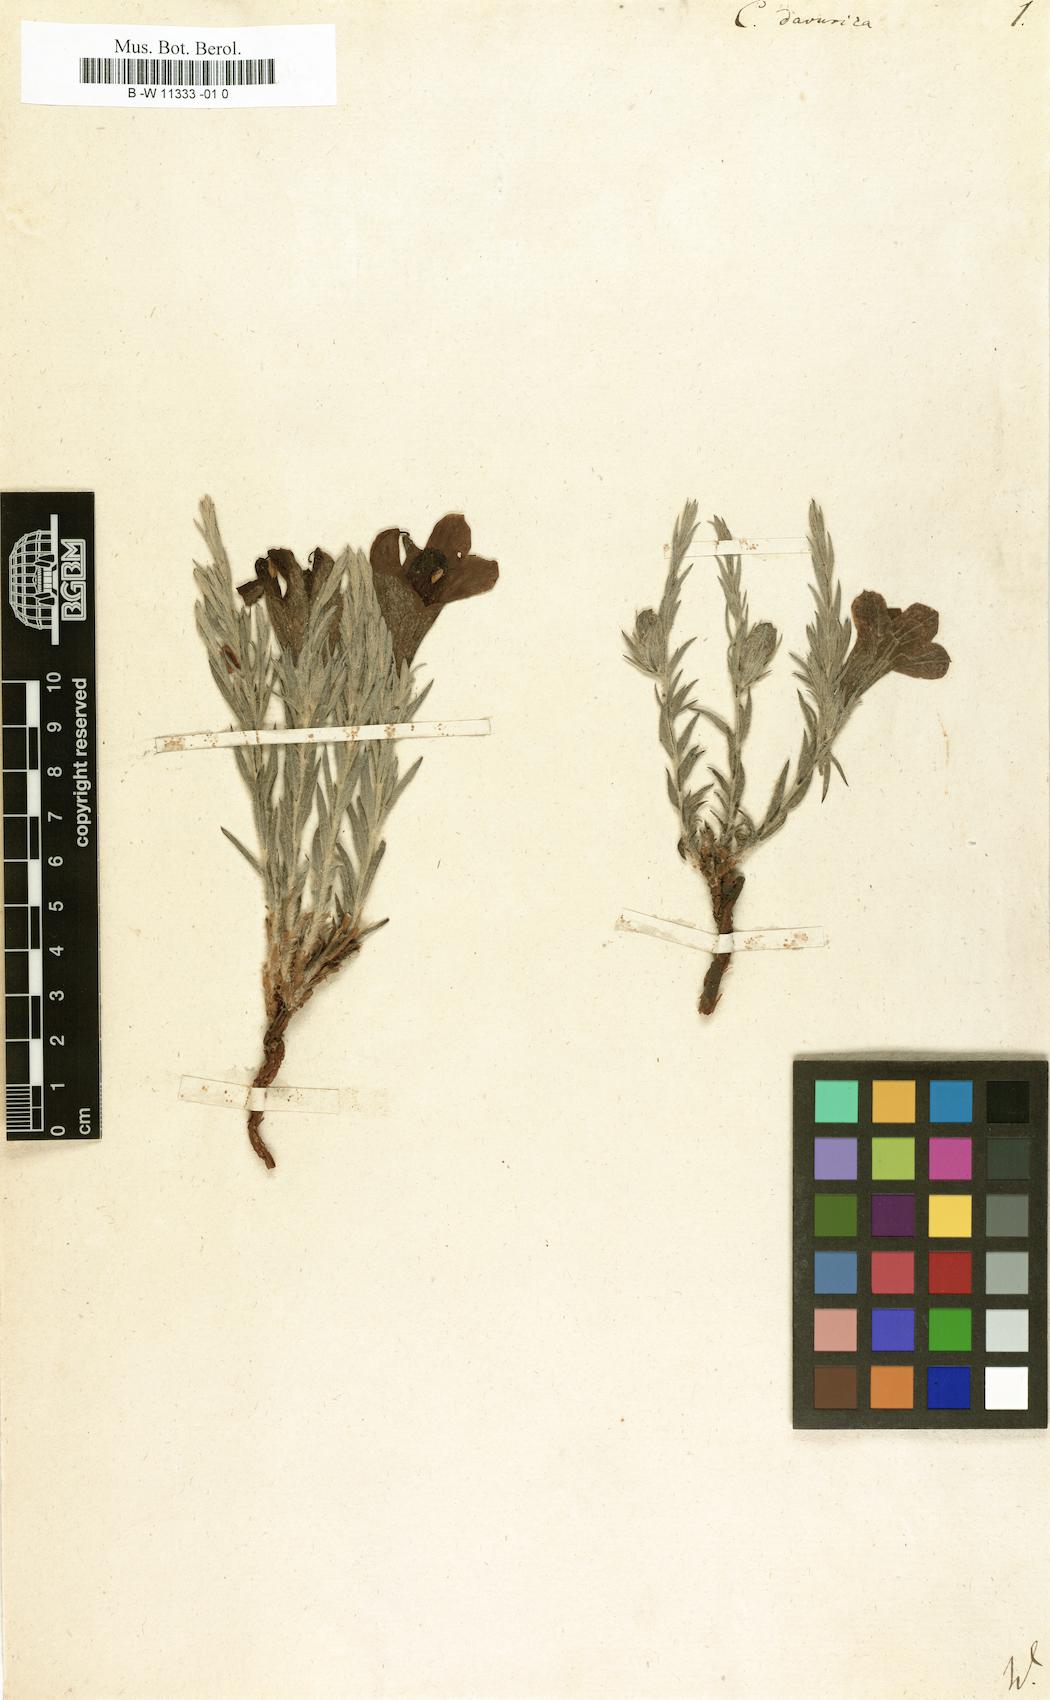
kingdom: Plantae
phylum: Tracheophyta
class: Magnoliopsida
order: Lamiales
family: Scrophulariaceae
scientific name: Scrophulariaceae
